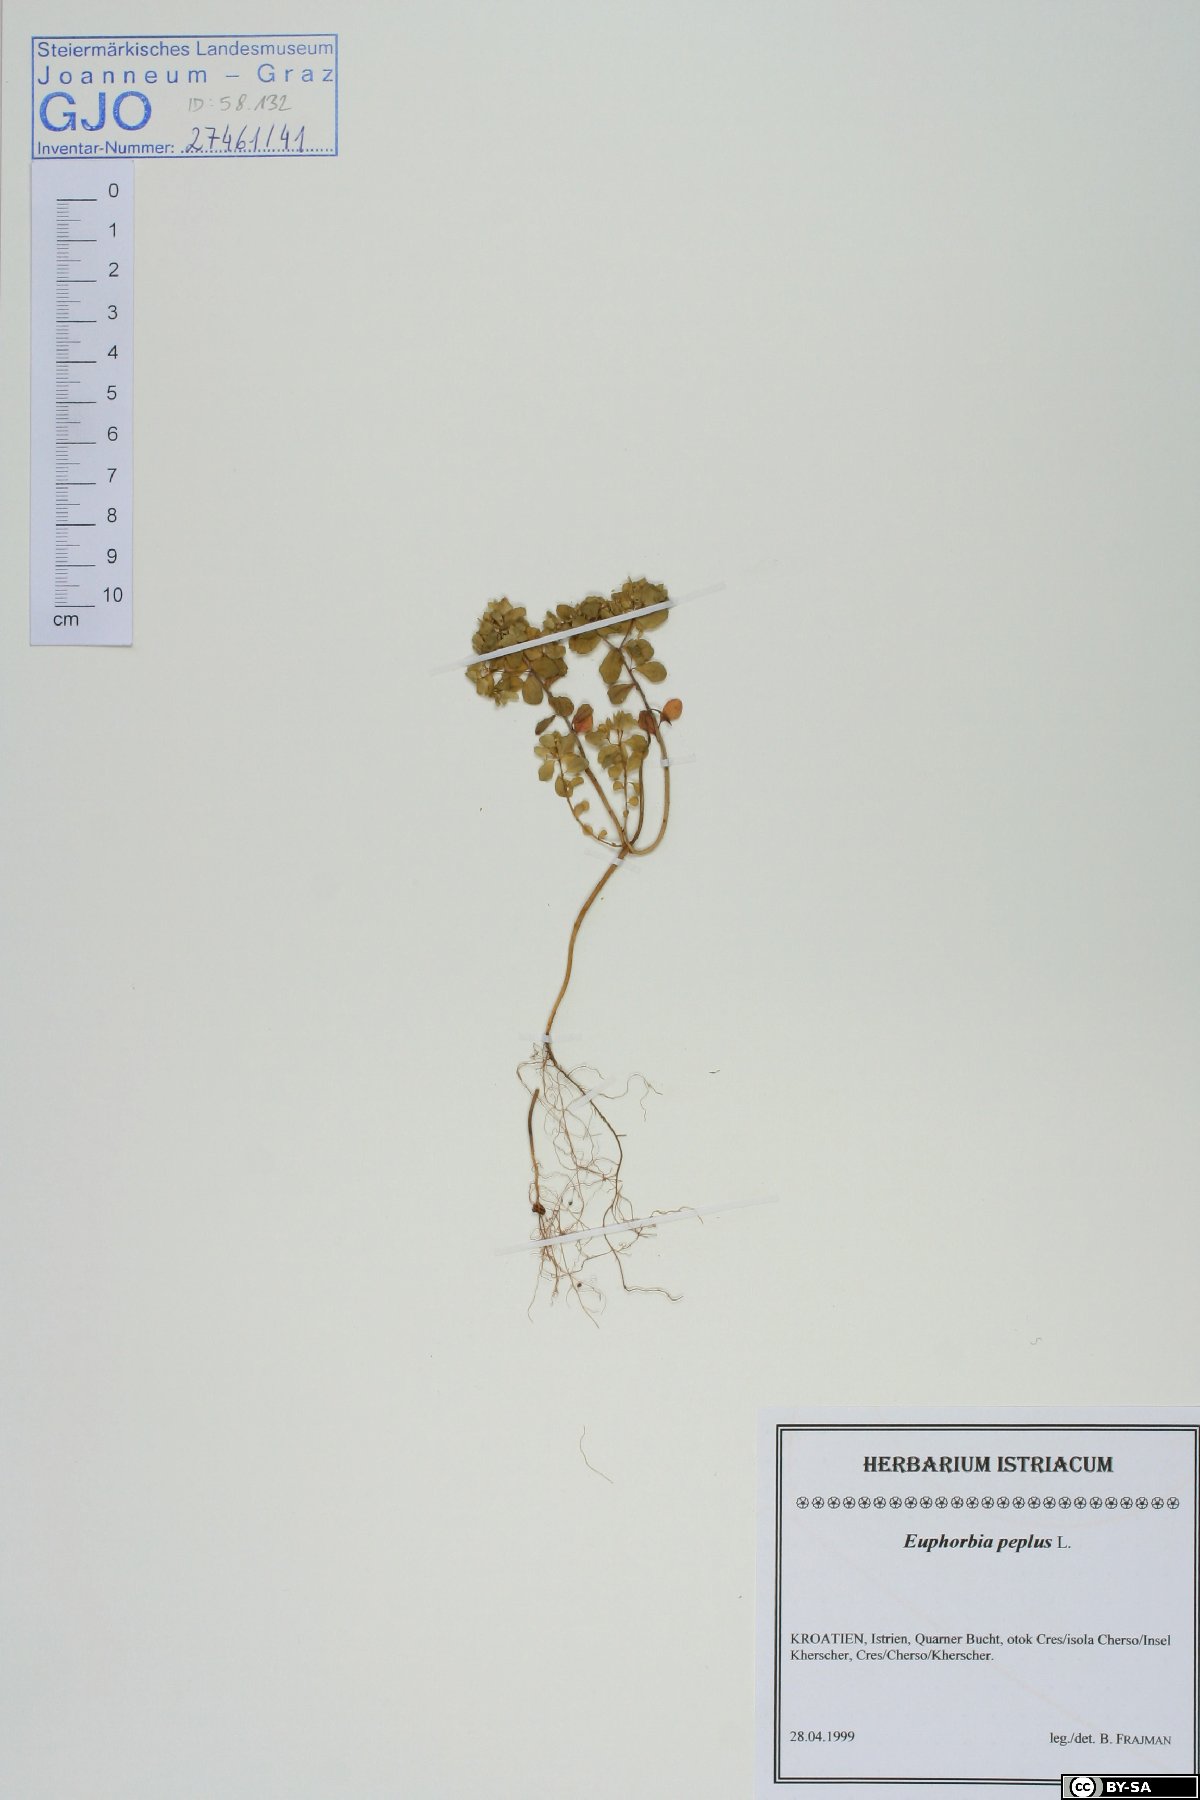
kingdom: Plantae
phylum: Tracheophyta
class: Magnoliopsida
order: Malpighiales
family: Euphorbiaceae
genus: Euphorbia
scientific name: Euphorbia peplus
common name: Petty spurge
